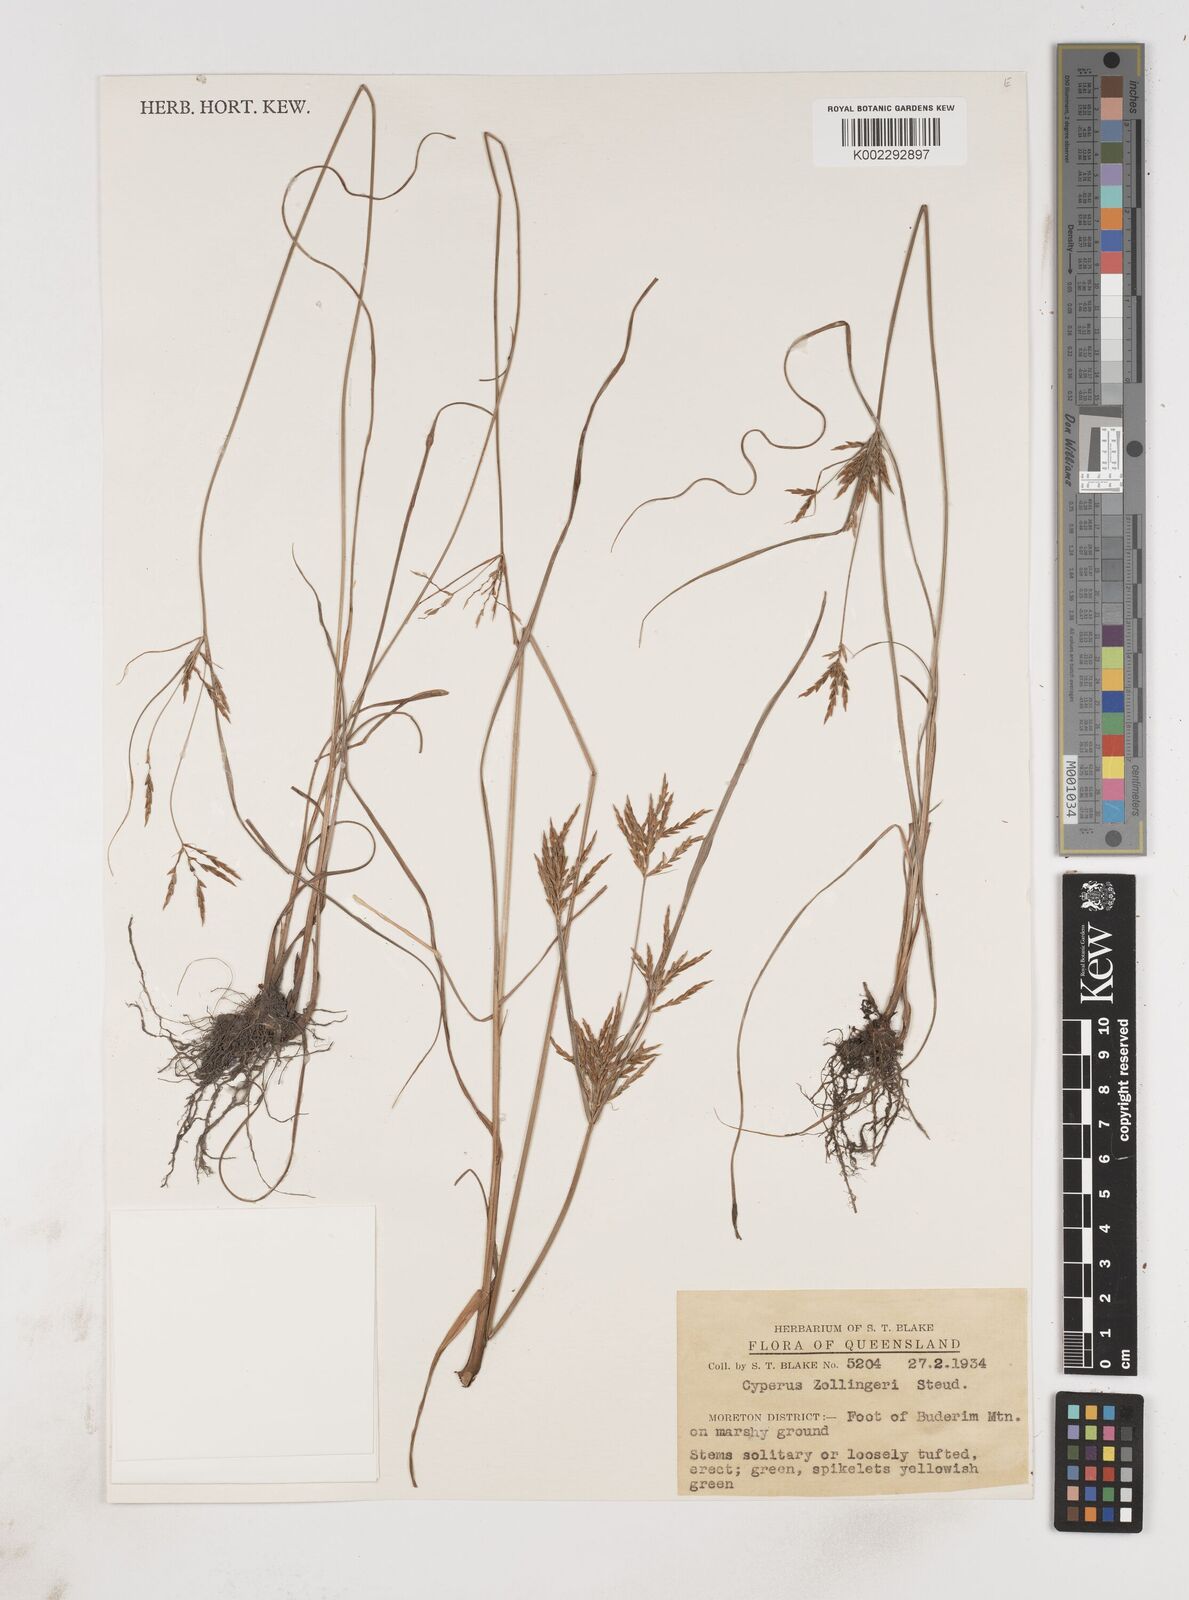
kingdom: Plantae
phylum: Tracheophyta
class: Liliopsida
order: Poales
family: Cyperaceae
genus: Cyperus
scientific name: Cyperus zollingeri
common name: Roadside flatsedge
